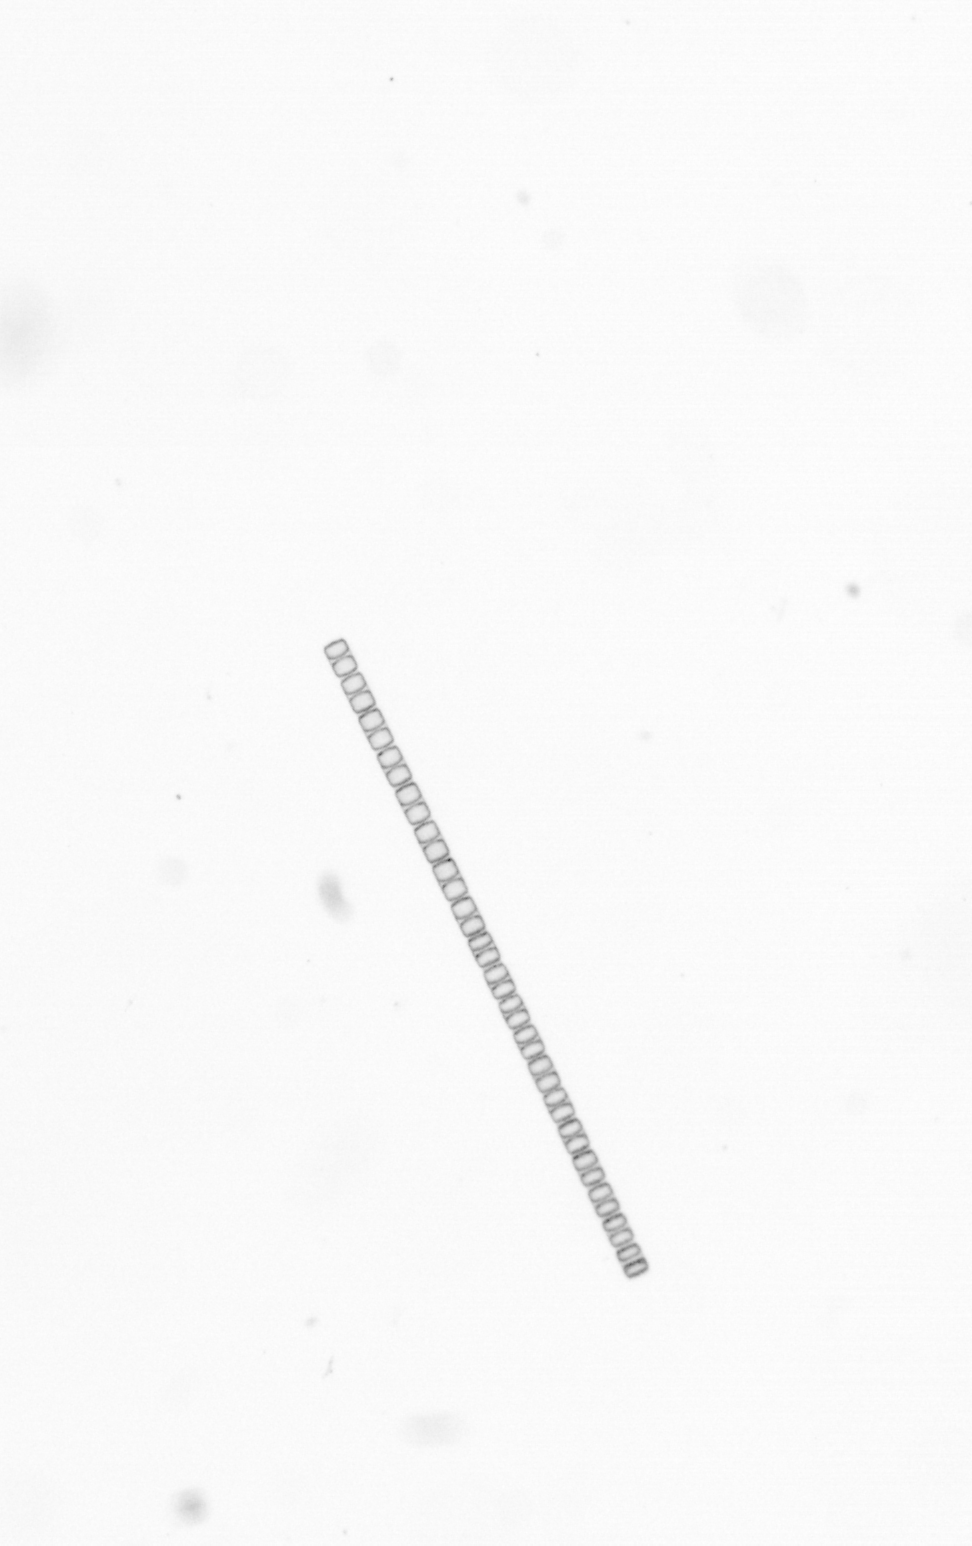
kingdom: Chromista
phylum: Ochrophyta
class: Bacillariophyceae
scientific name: Bacillariophyceae
